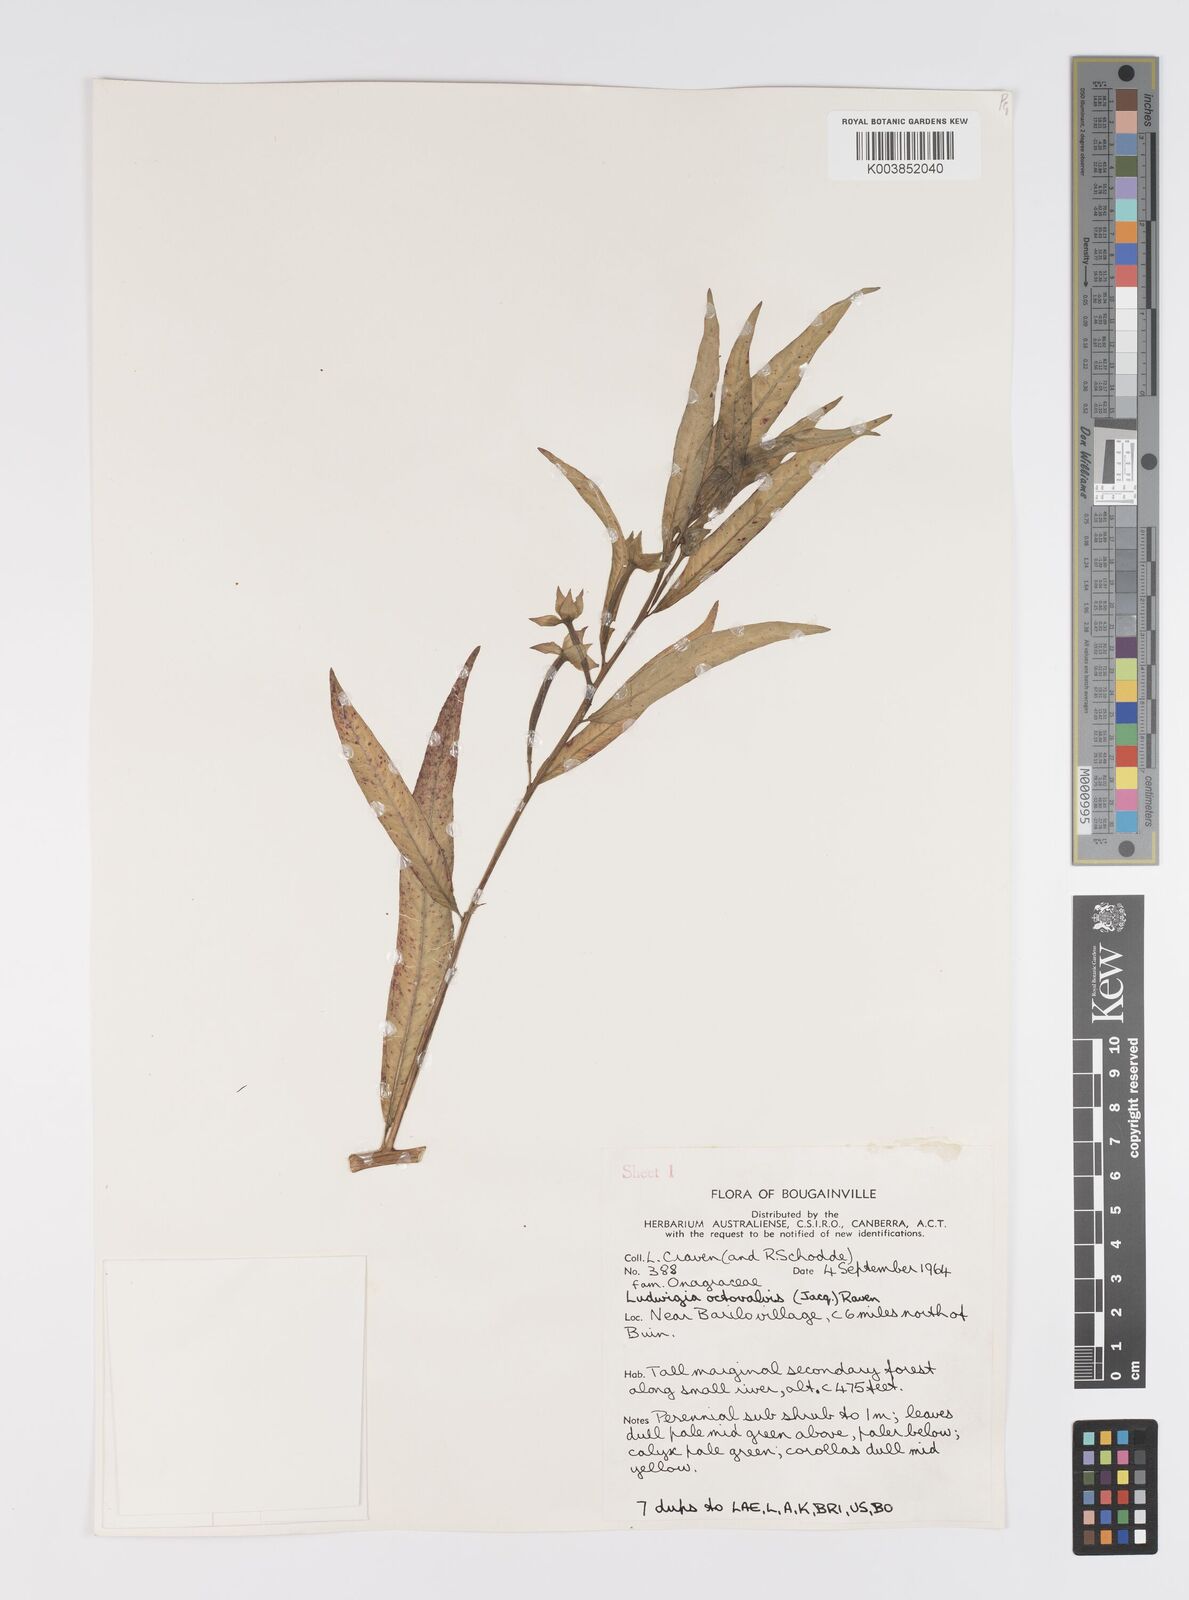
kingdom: Plantae
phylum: Tracheophyta
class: Magnoliopsida
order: Myrtales
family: Onagraceae
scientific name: Onagraceae
